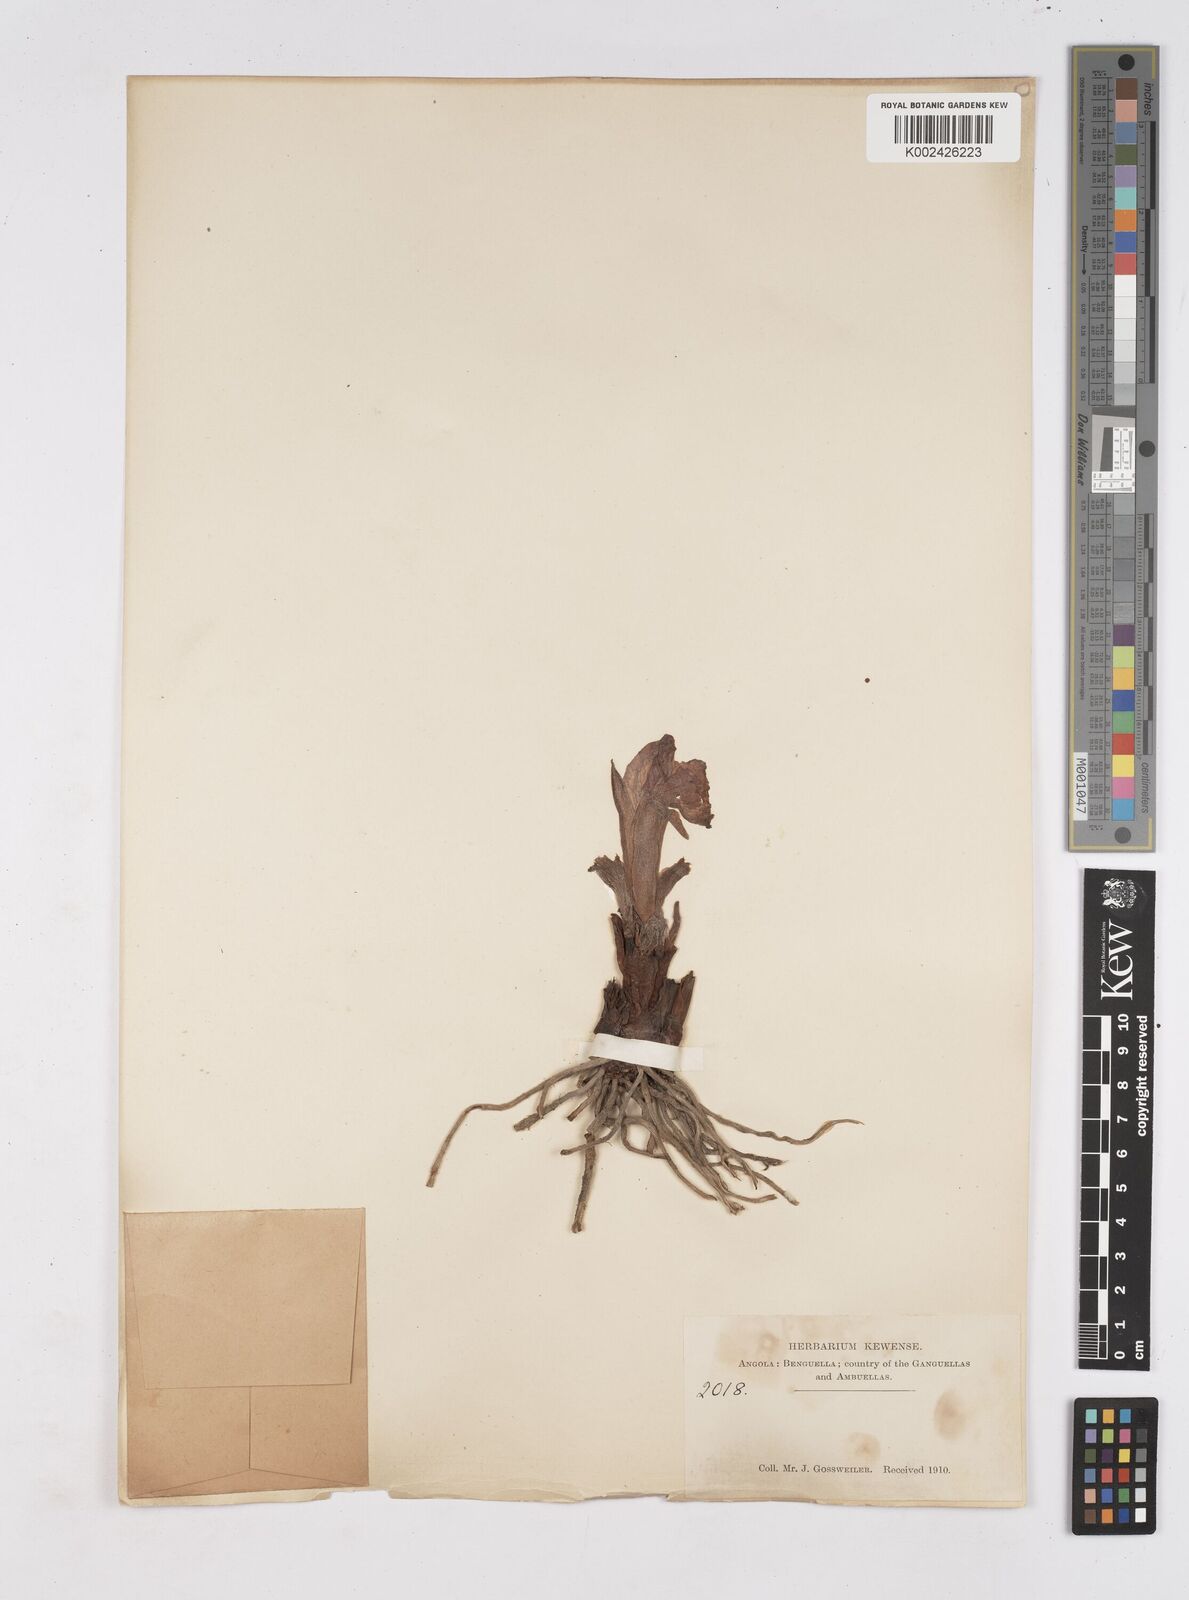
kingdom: Plantae
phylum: Tracheophyta
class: Liliopsida
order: Zingiberales
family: Zingiberaceae
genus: Siphonochilus
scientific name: Siphonochilus
